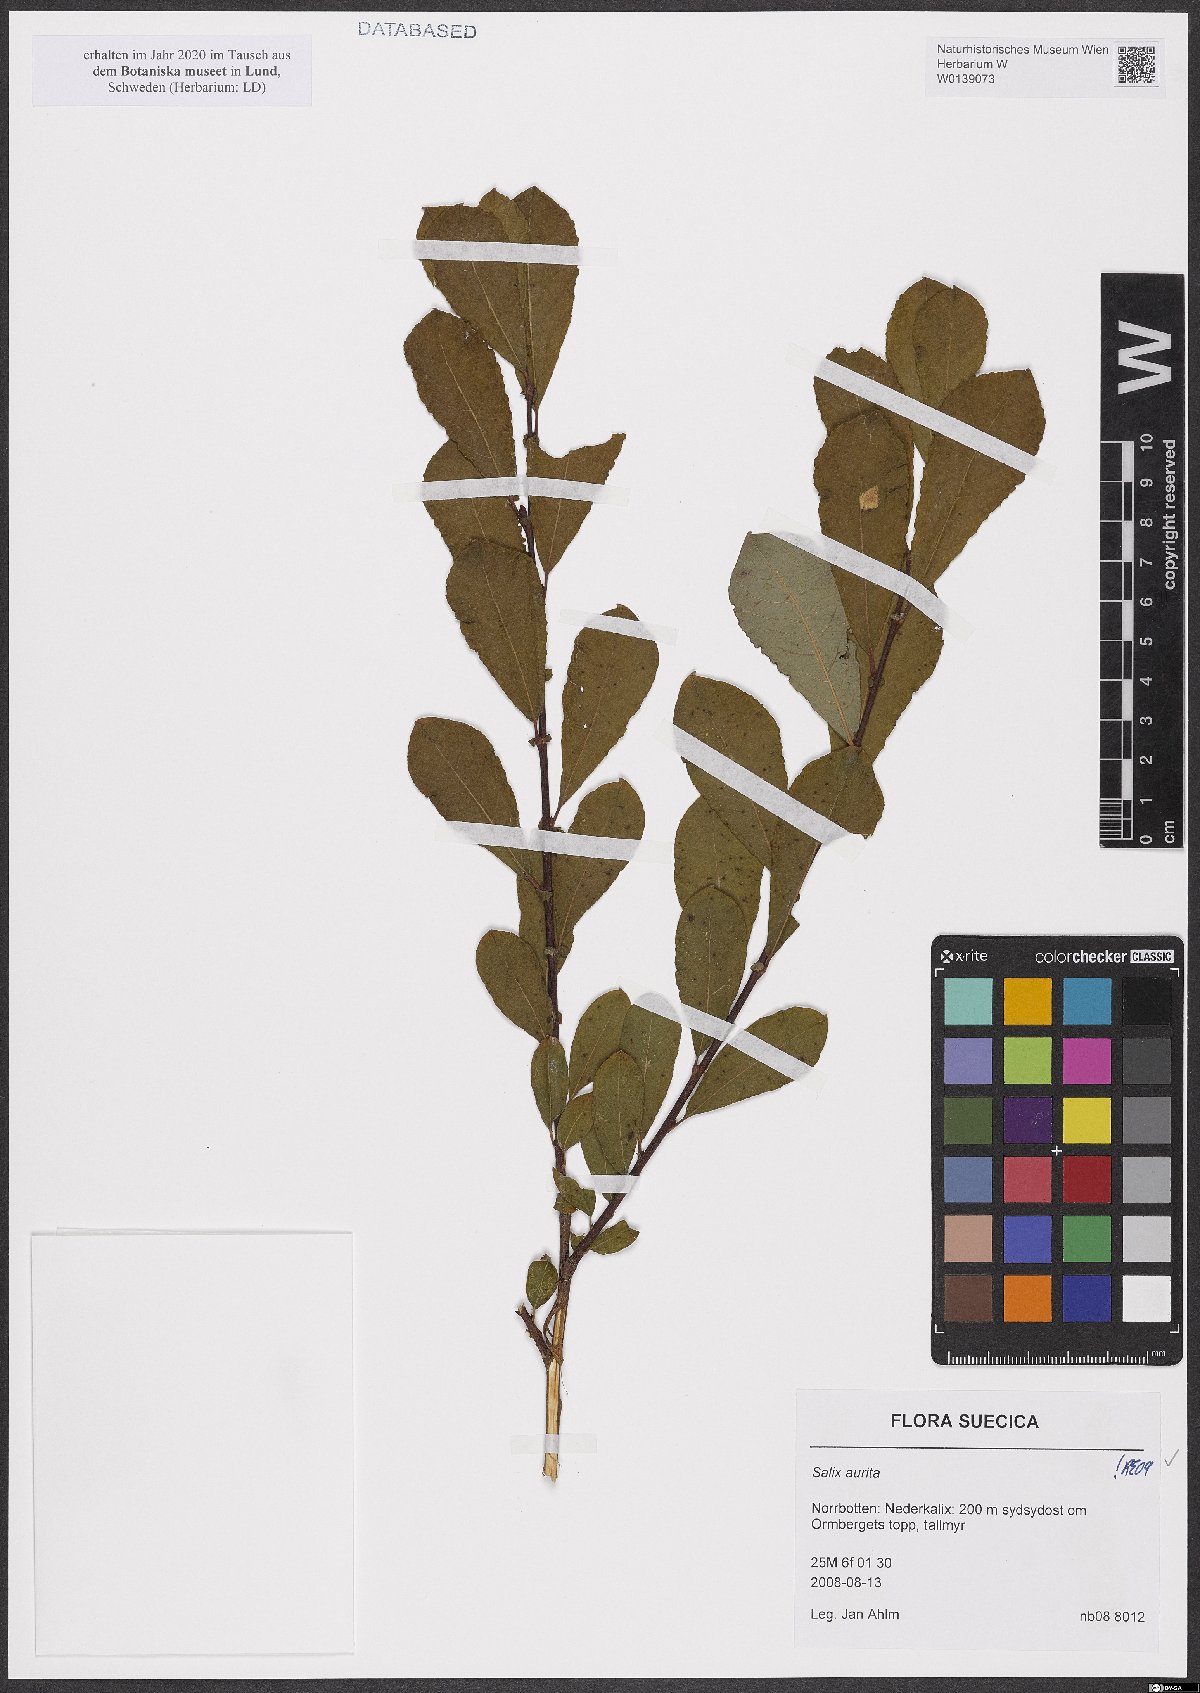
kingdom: Plantae
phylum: Tracheophyta
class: Magnoliopsida
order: Malpighiales
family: Salicaceae
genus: Salix
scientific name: Salix aurita
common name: Eared willow
